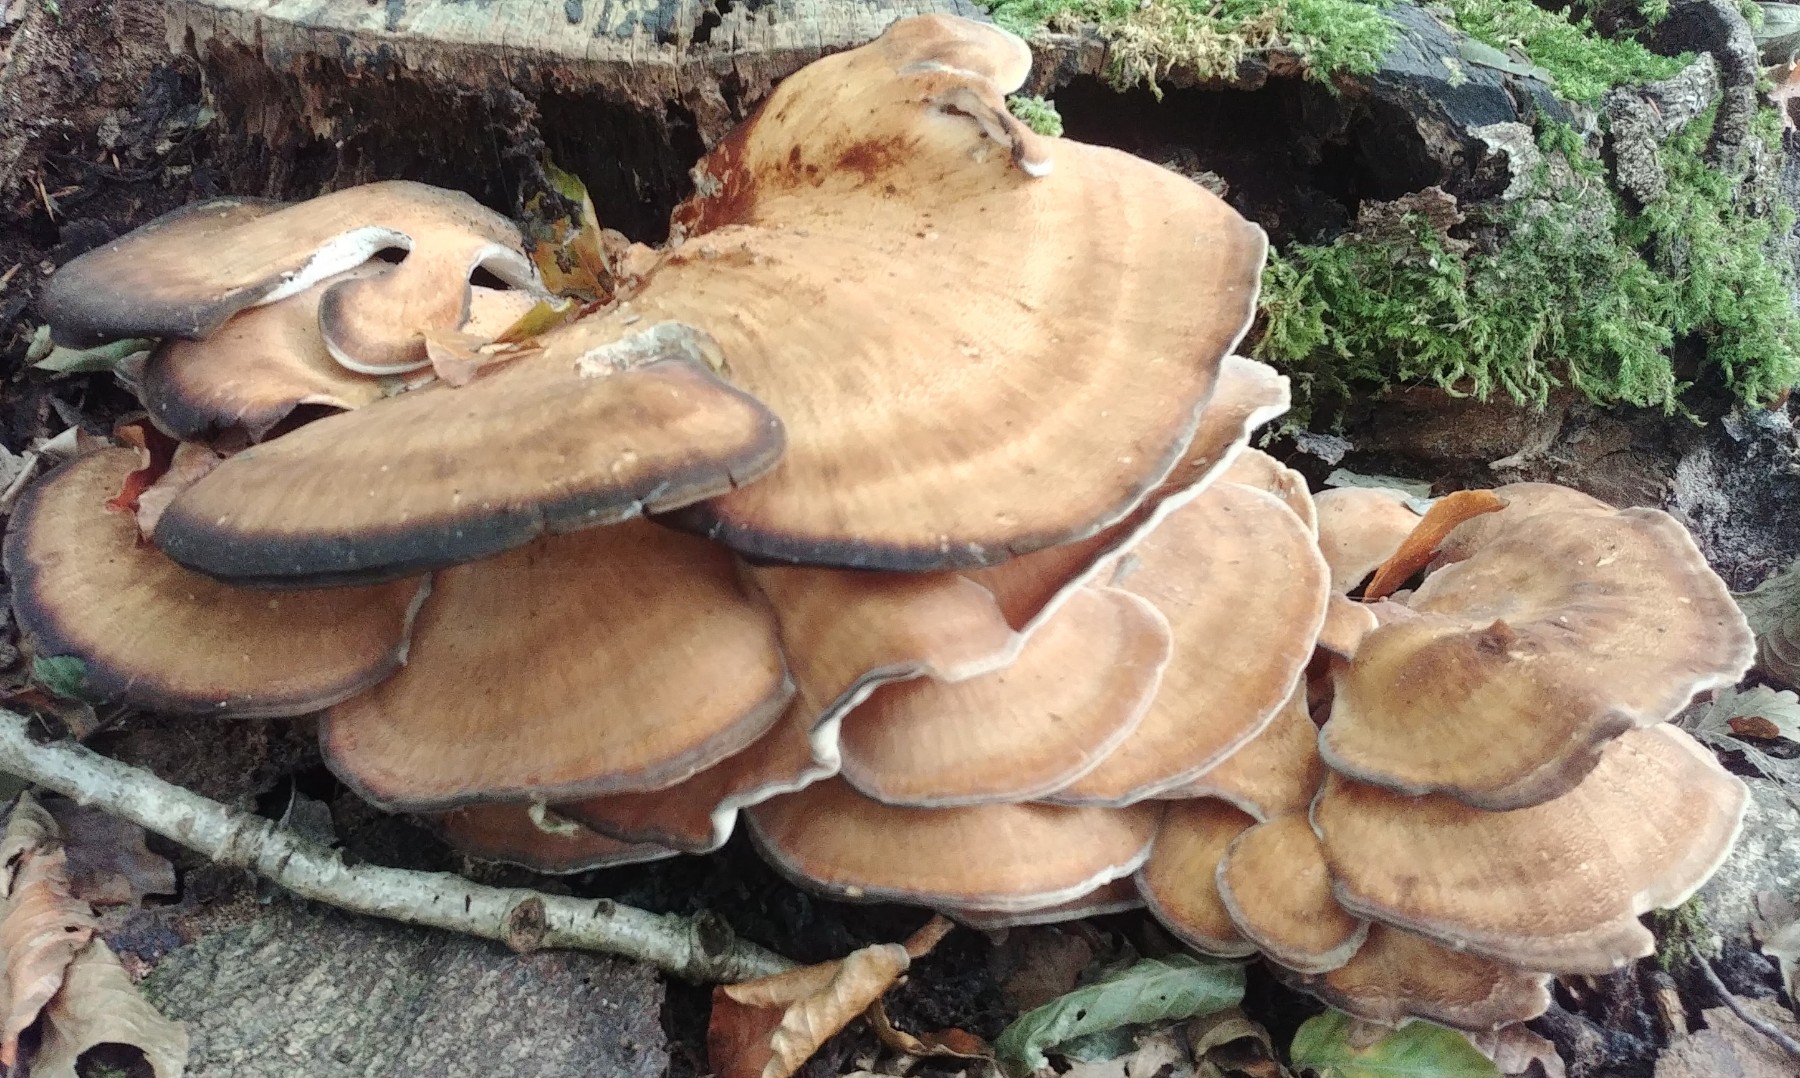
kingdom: Fungi
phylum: Basidiomycota
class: Agaricomycetes
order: Polyporales
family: Meripilaceae
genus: Meripilus
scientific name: Meripilus giganteus
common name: kæmpeporesvamp
